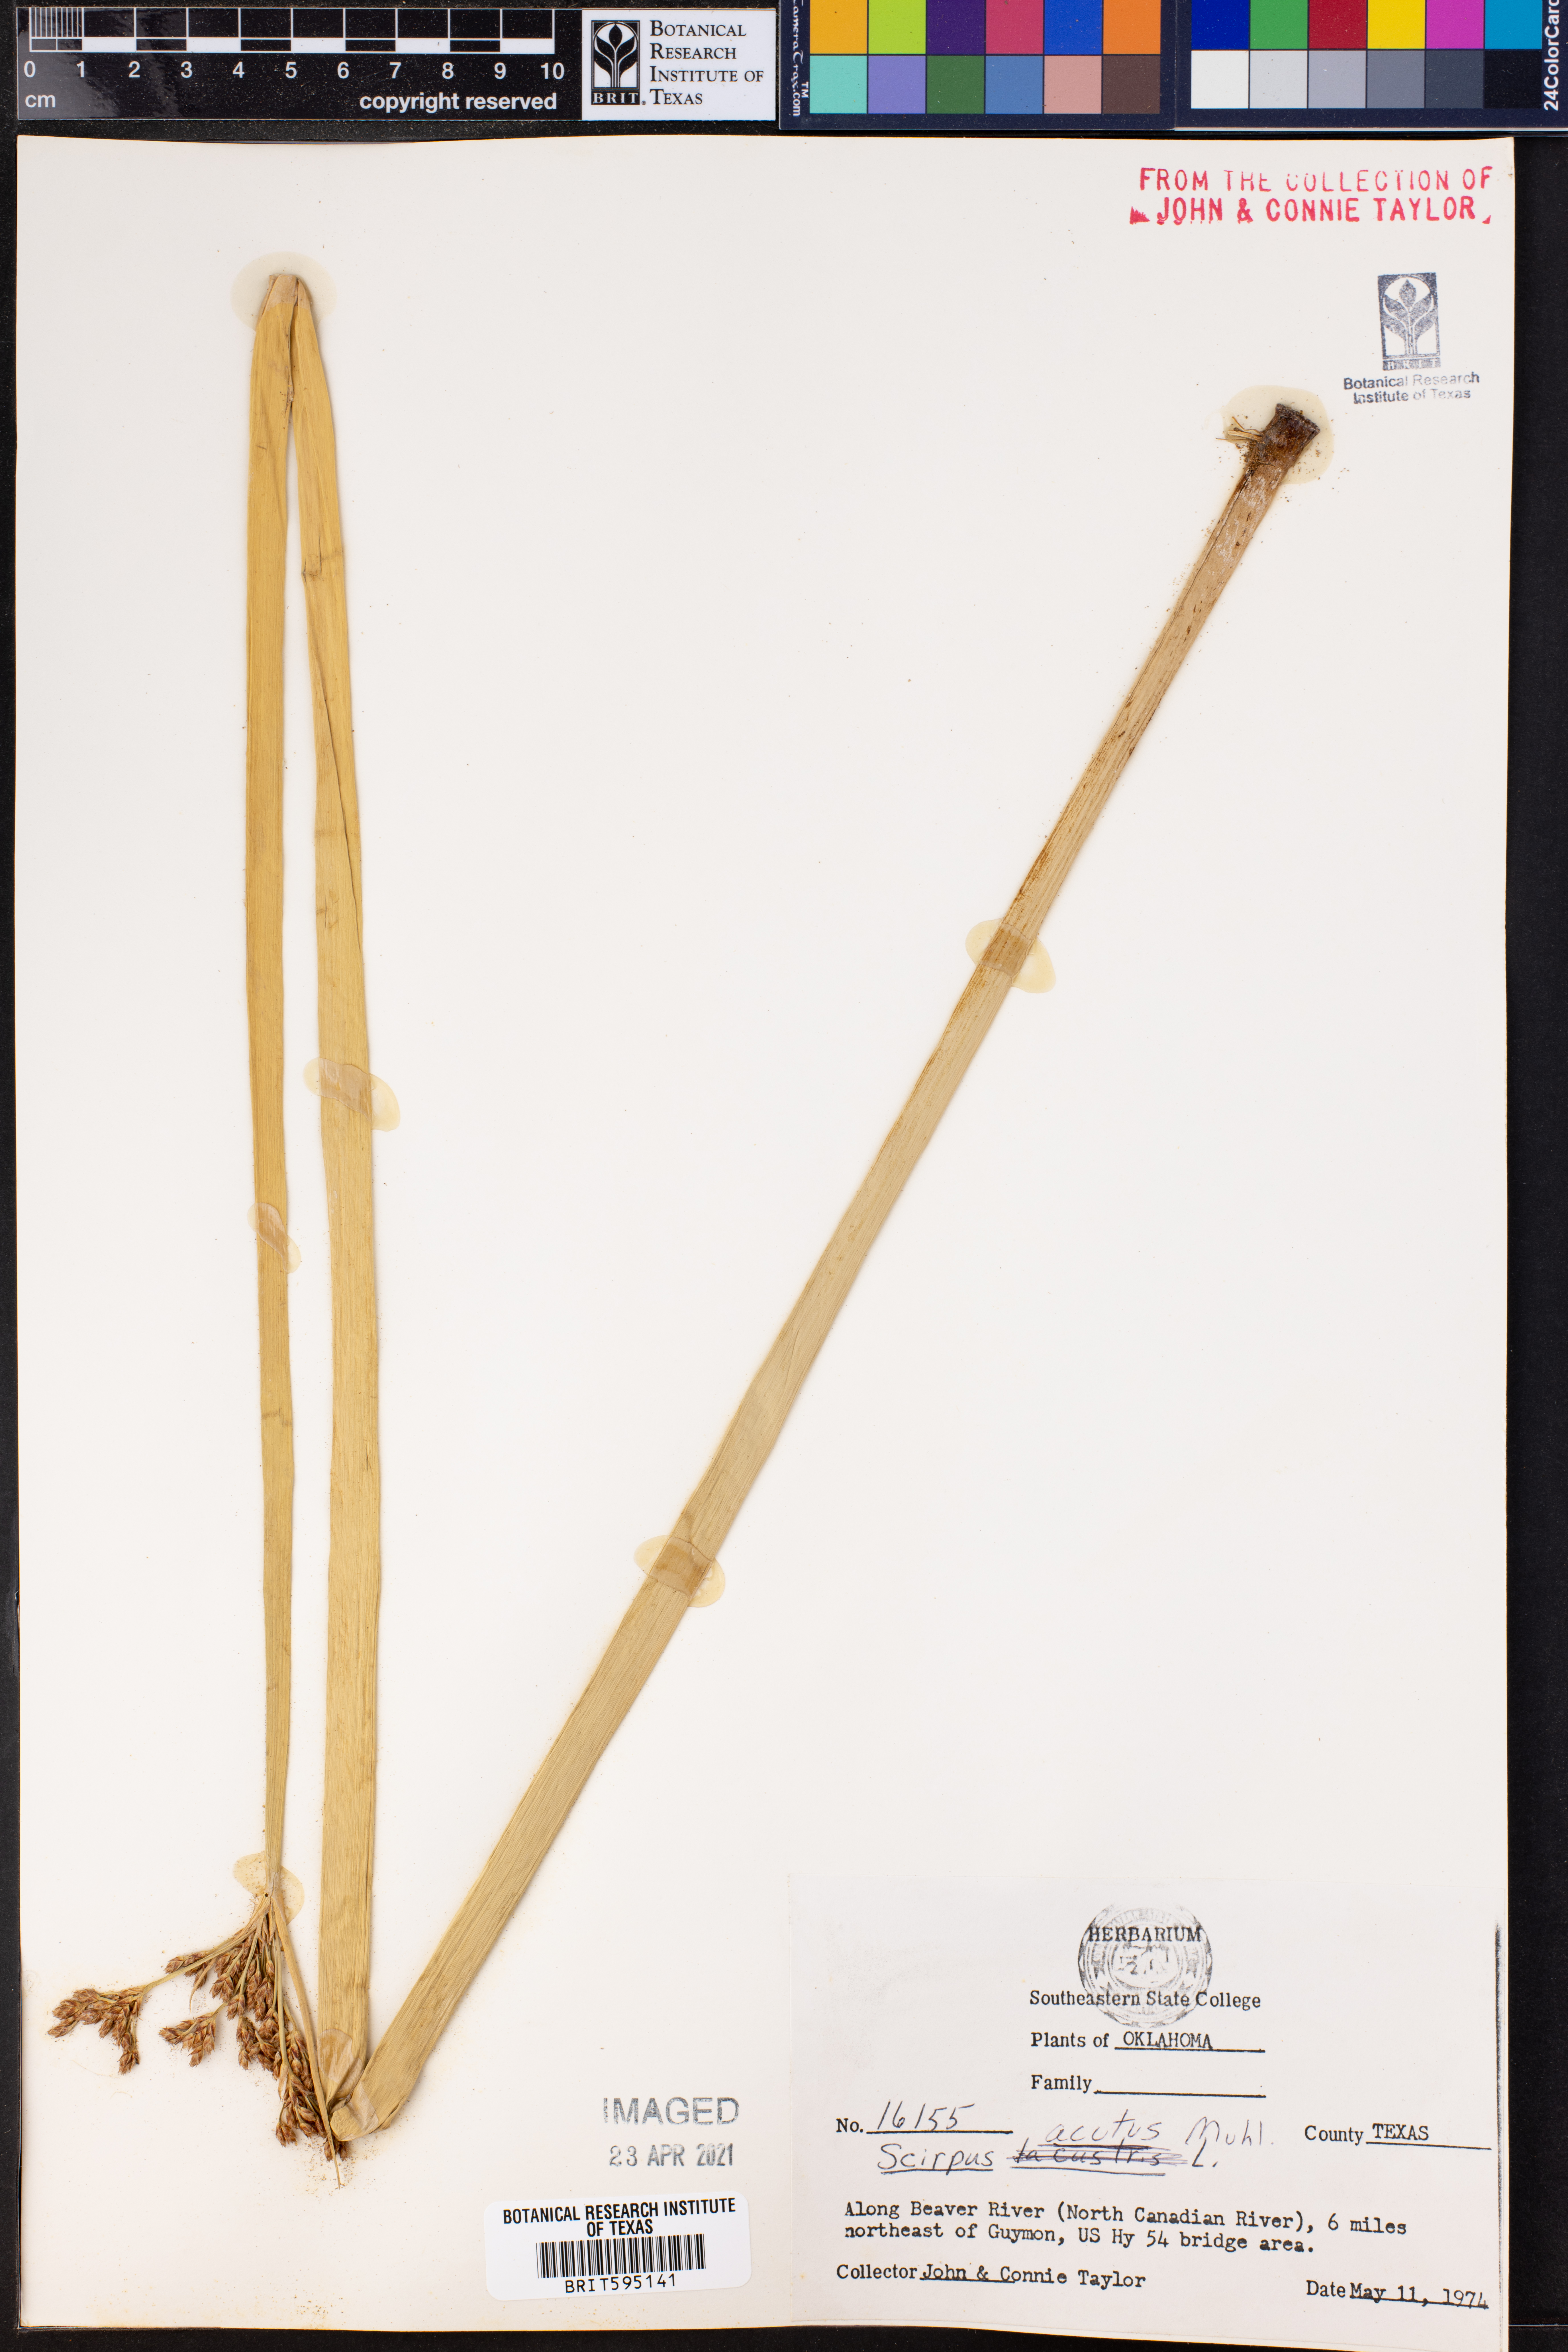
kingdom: Plantae
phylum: Tracheophyta
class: Liliopsida
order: Poales
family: Cyperaceae
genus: Scirpus
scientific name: Scirpus acutus
